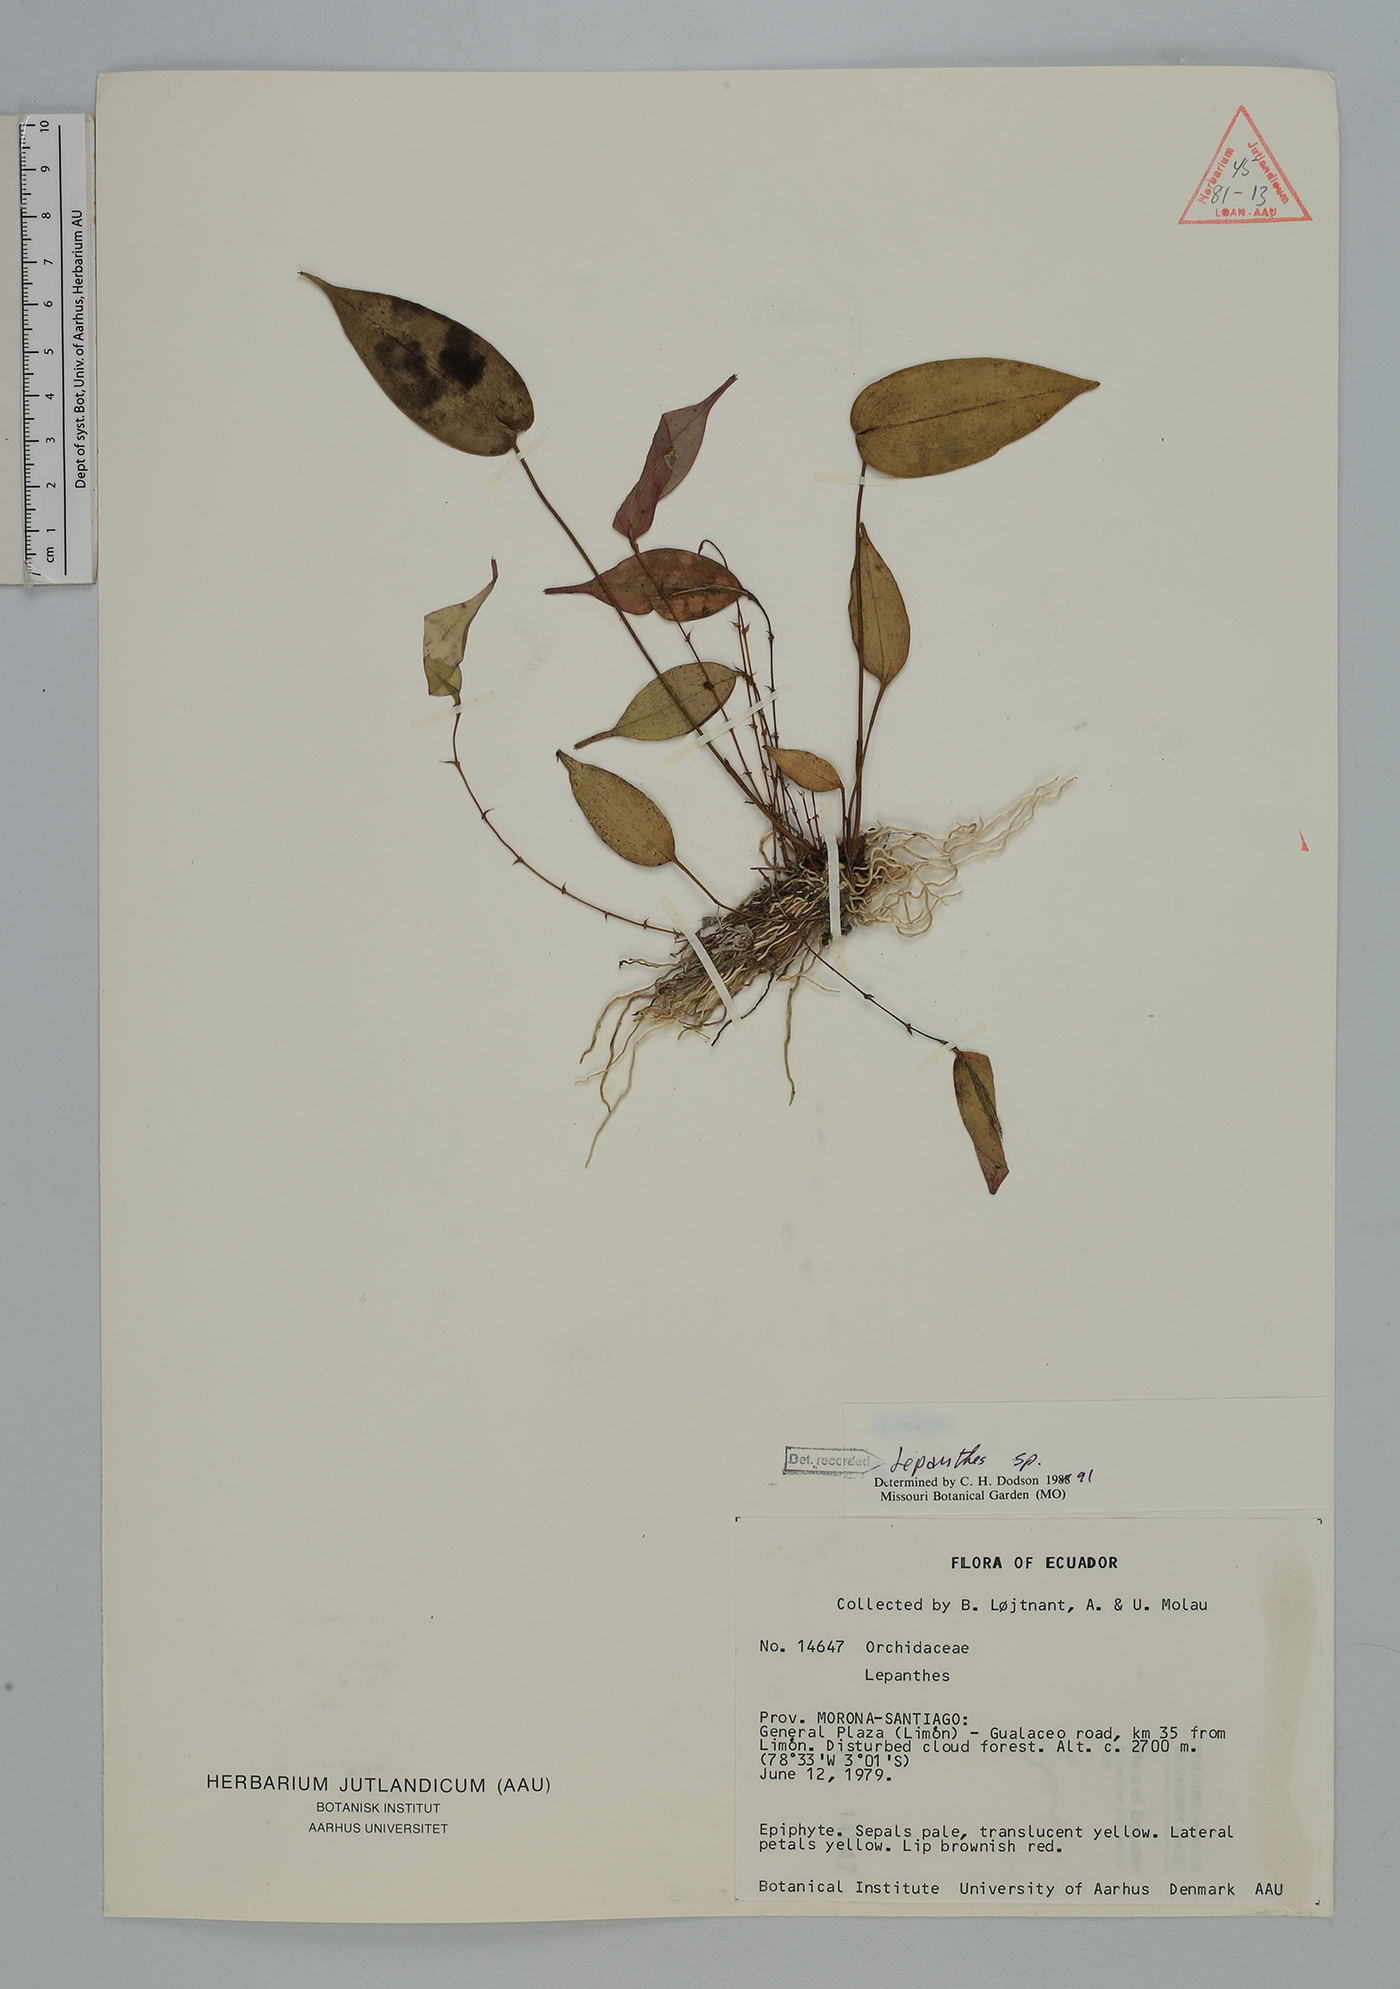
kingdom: Plantae
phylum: Tracheophyta
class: Liliopsida
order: Asparagales
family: Orchidaceae
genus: Lepanthes
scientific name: Lepanthes
